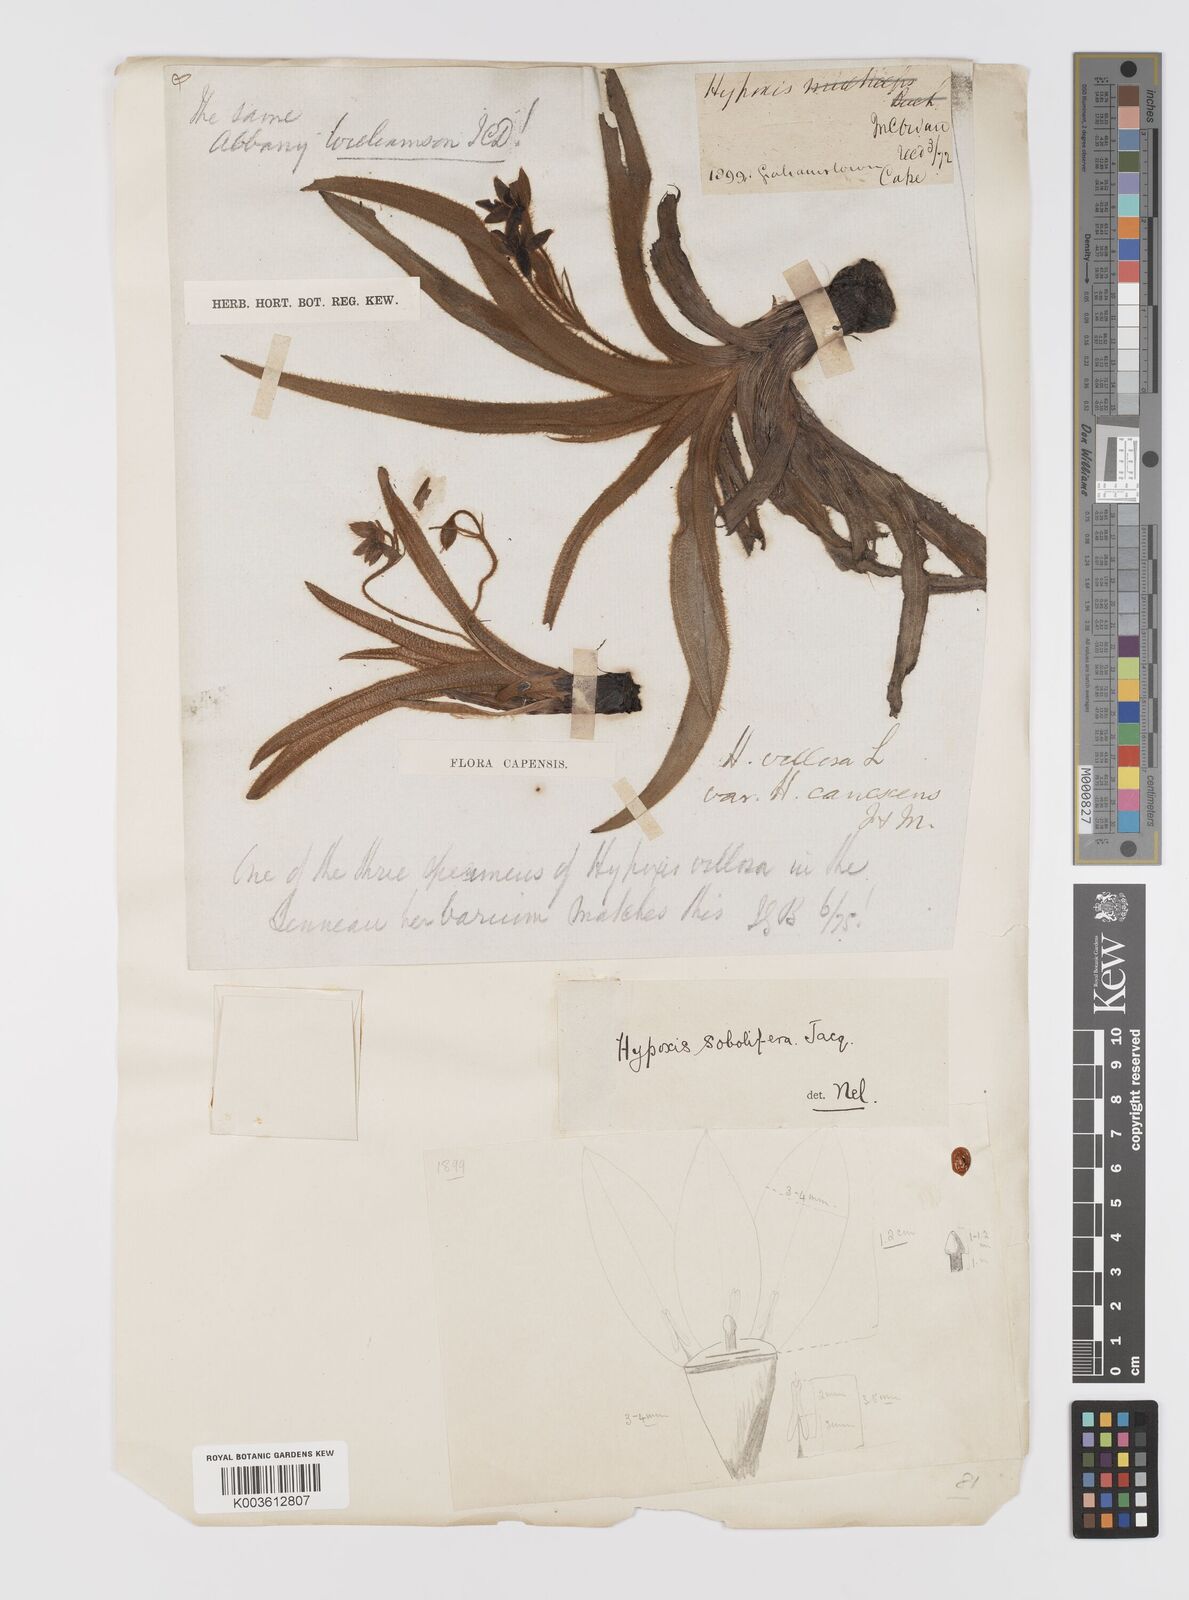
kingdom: Plantae
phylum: Tracheophyta
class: Liliopsida
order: Asparagales
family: Hypoxidaceae
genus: Hypoxis
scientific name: Hypoxis sobolifera
